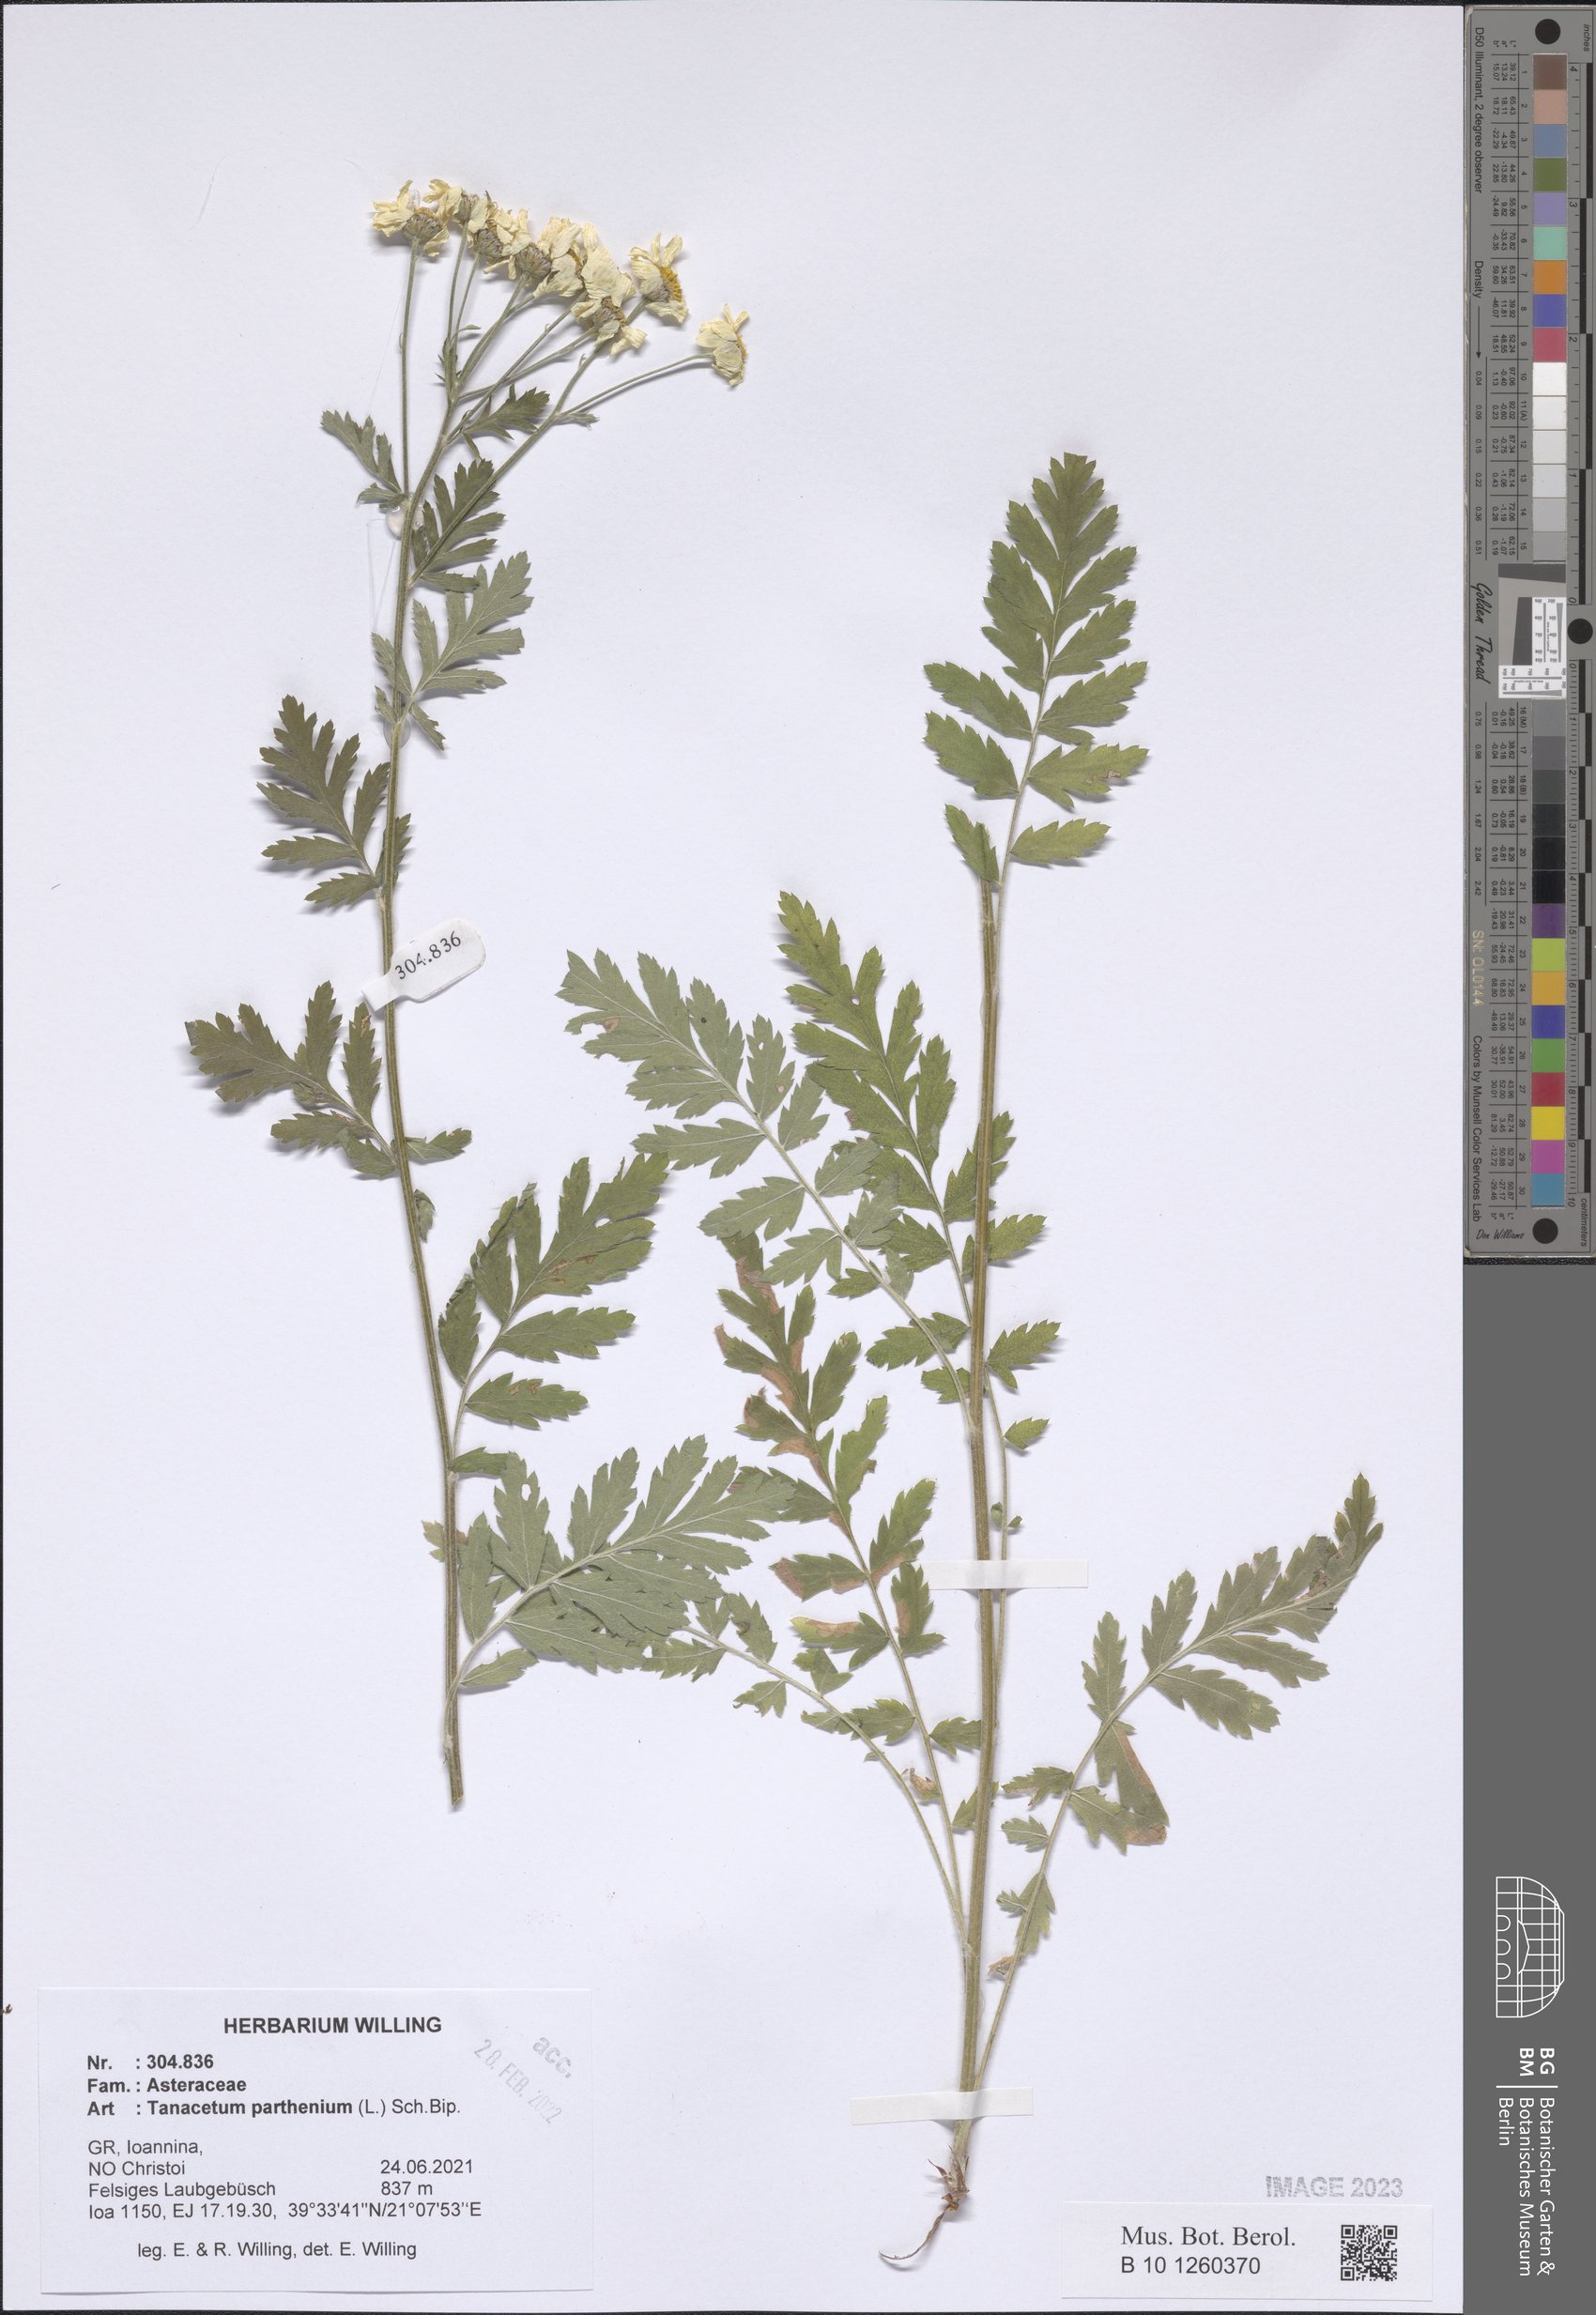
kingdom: Plantae
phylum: Tracheophyta
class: Magnoliopsida
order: Asterales
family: Asteraceae
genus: Tanacetum
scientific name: Tanacetum parthenium
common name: Feverfew
